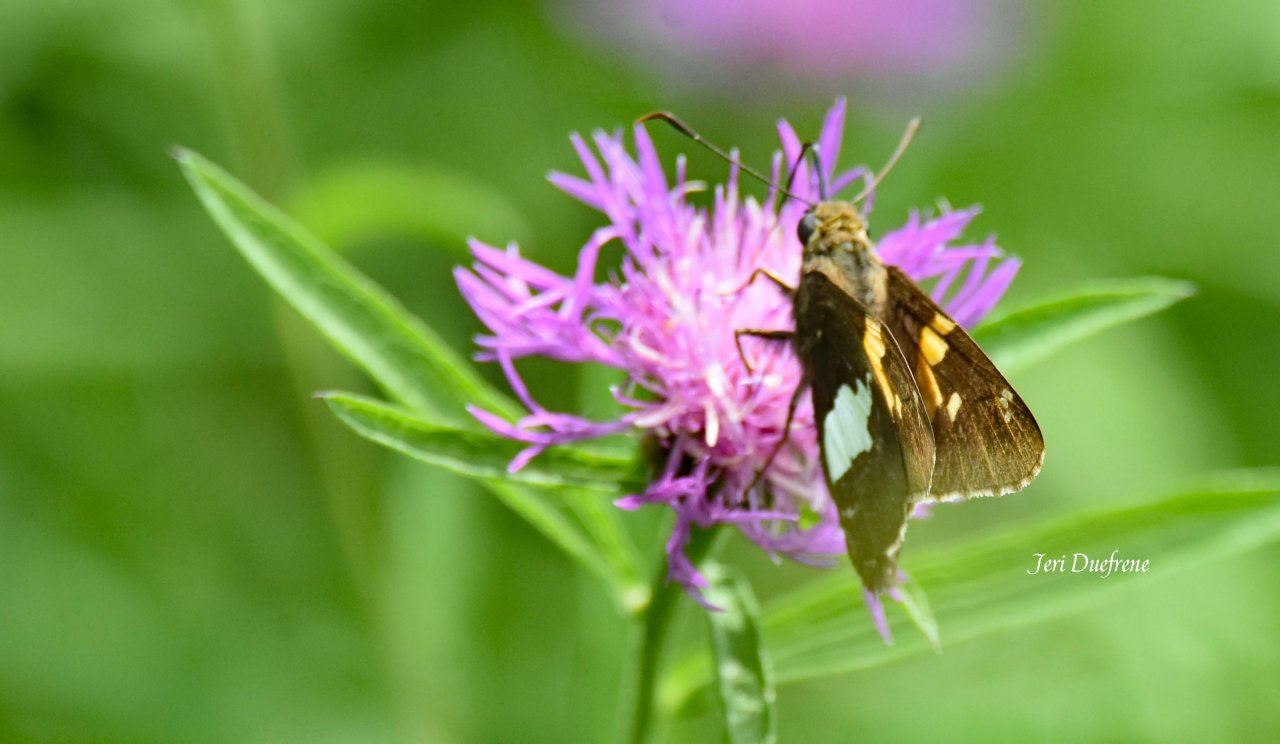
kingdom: Animalia
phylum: Arthropoda
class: Insecta
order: Lepidoptera
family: Hesperiidae
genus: Epargyreus
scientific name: Epargyreus clarus
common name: Silver-spotted Skipper
